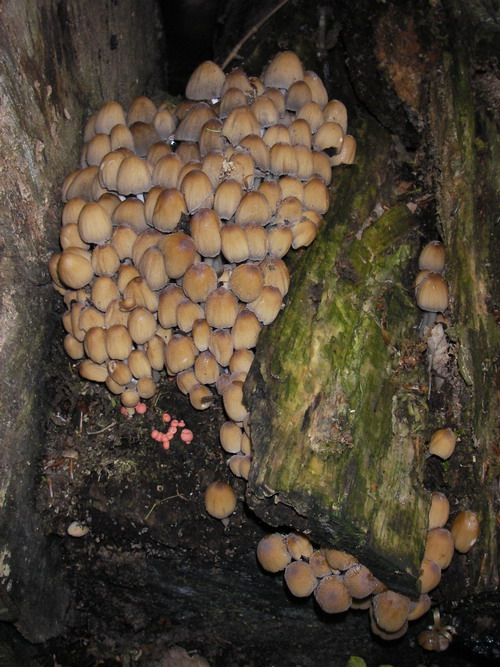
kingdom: Fungi
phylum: Basidiomycota
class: Agaricomycetes
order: Agaricales
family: Psathyrellaceae
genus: Coprinellus
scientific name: Coprinellus micaceus
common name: glimmer-blækhat
